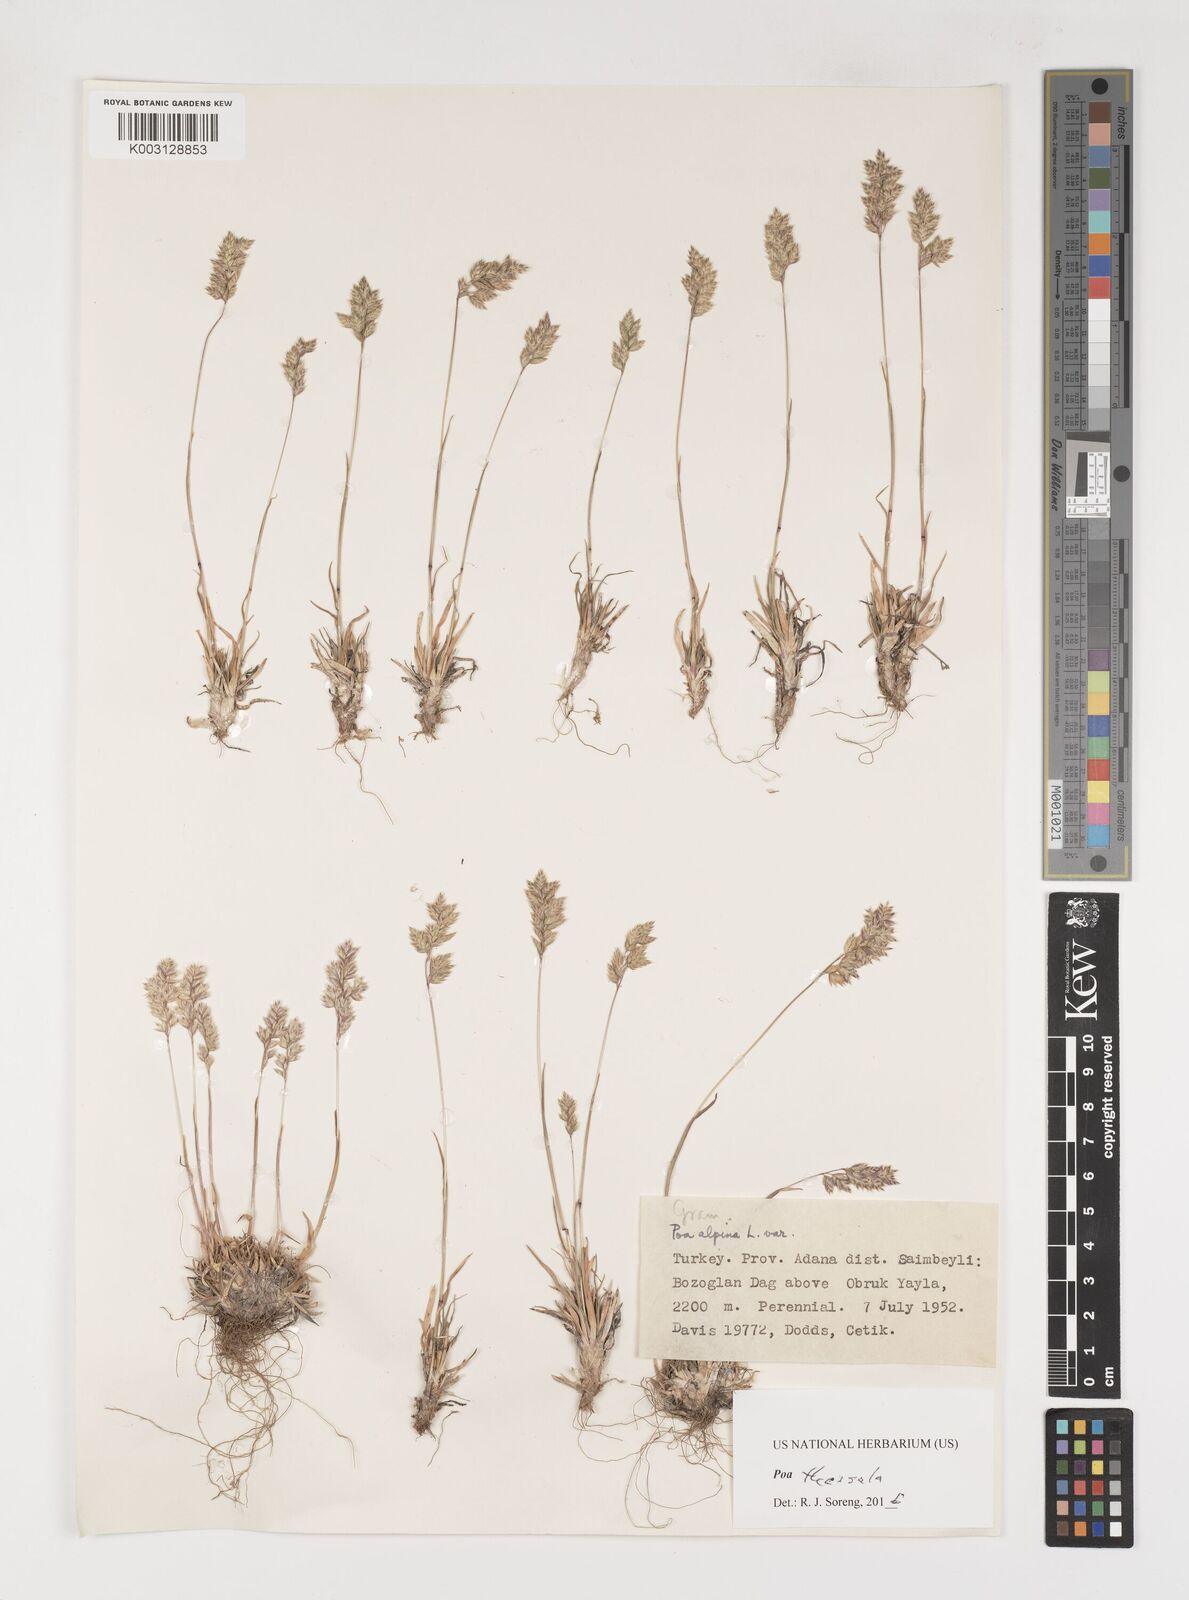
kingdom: Plantae
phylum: Tracheophyta
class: Liliopsida
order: Poales
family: Poaceae
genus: Poa
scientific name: Poa thessala
